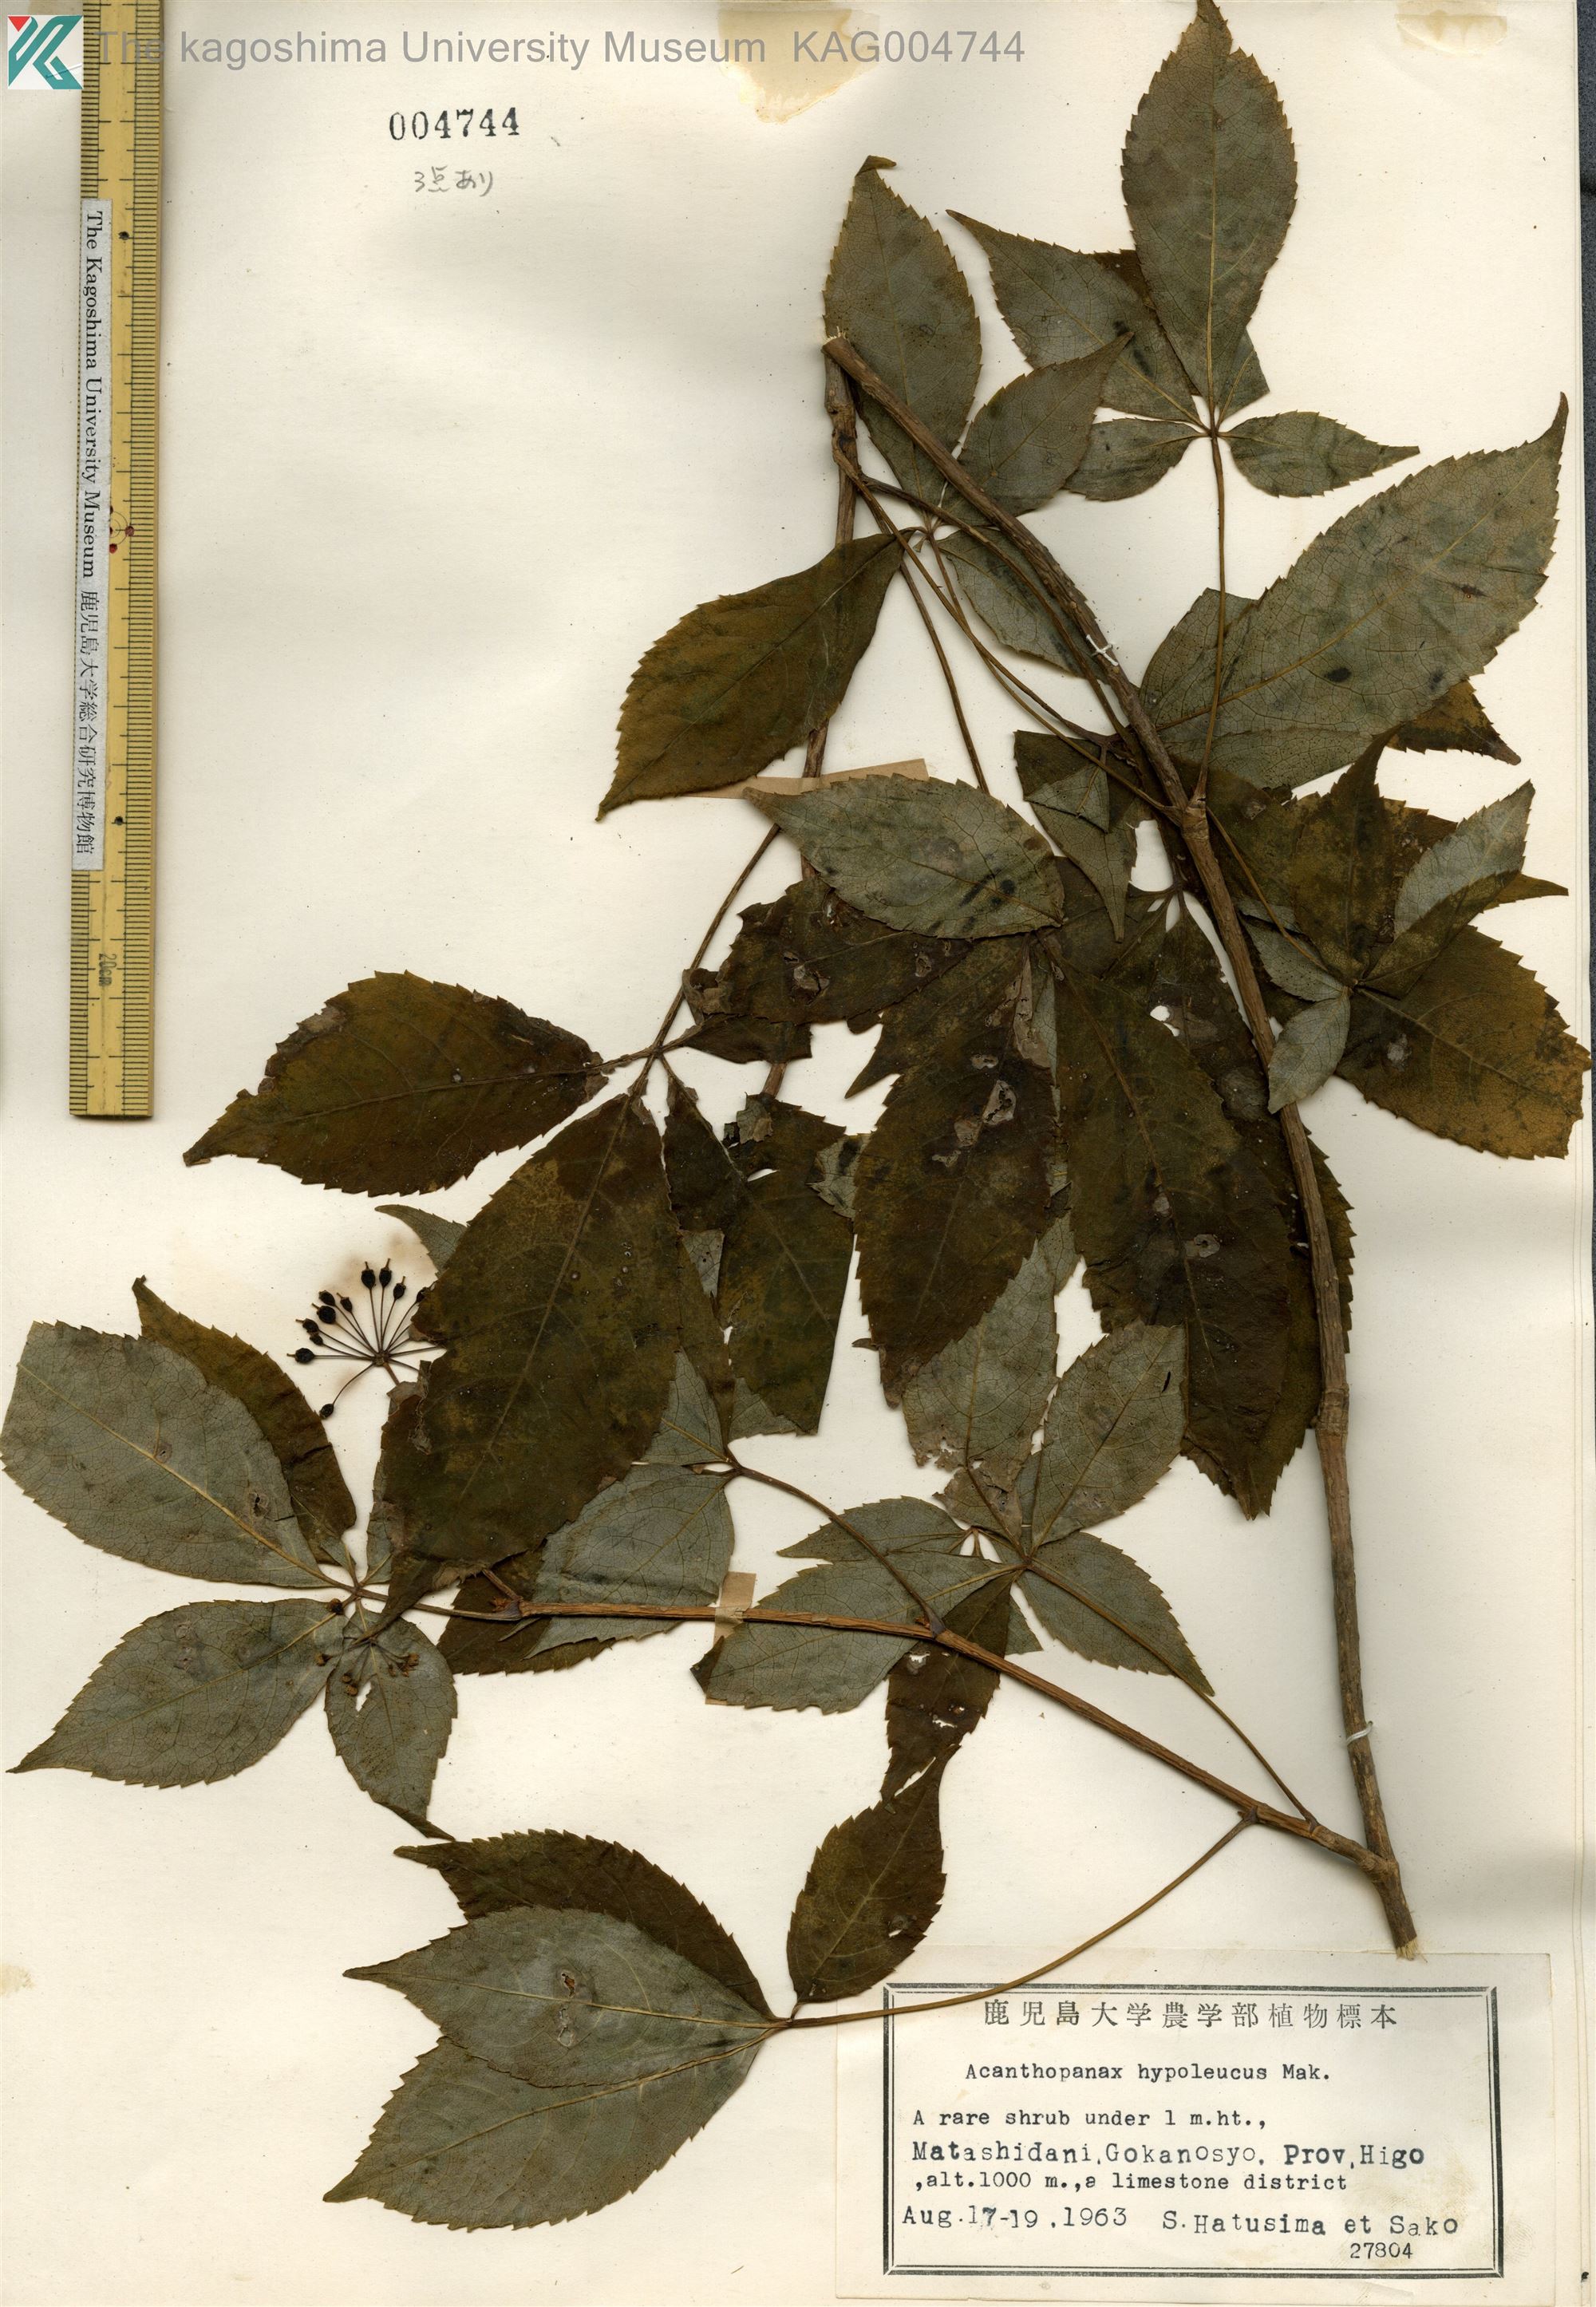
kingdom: Plantae
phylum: Tracheophyta
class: Magnoliopsida
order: Apiales
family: Araliaceae
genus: Eleutherococcus
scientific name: Eleutherococcus hypoleucus
